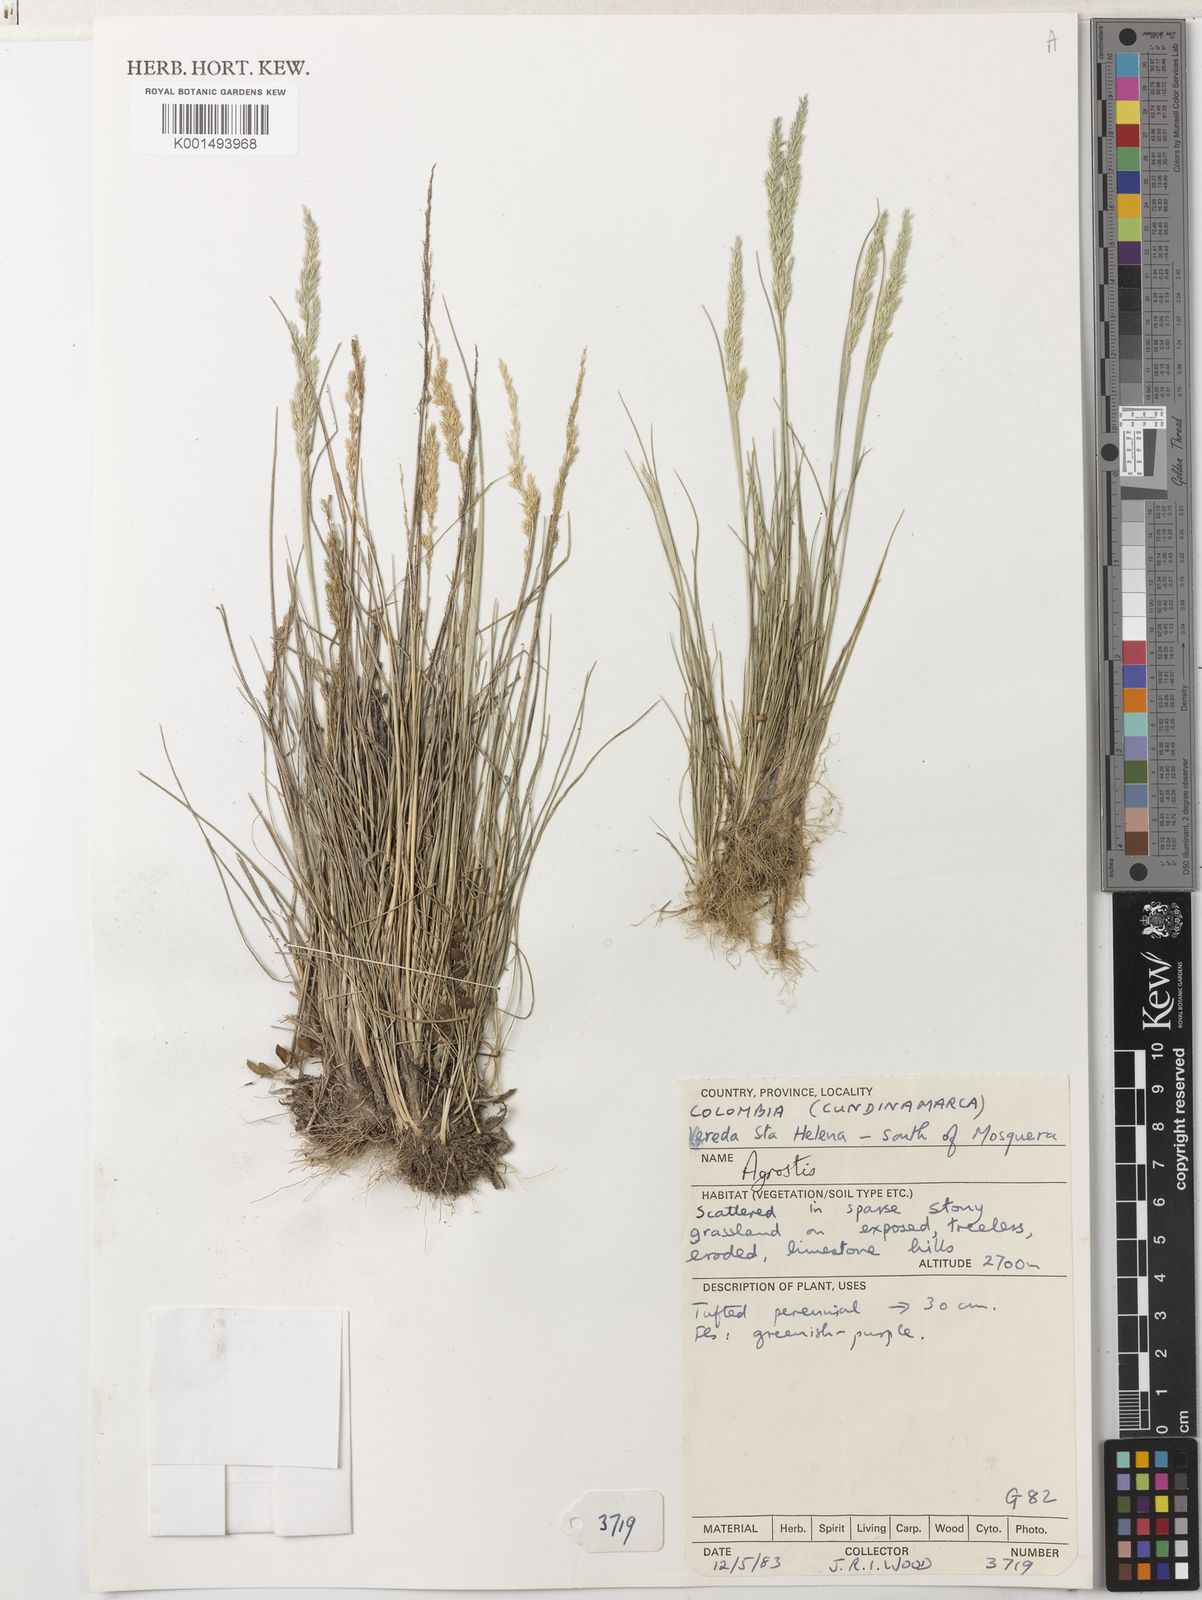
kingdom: Plantae
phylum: Tracheophyta
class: Liliopsida
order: Poales
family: Poaceae
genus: Agrostis
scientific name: Agrostis tolucensis
